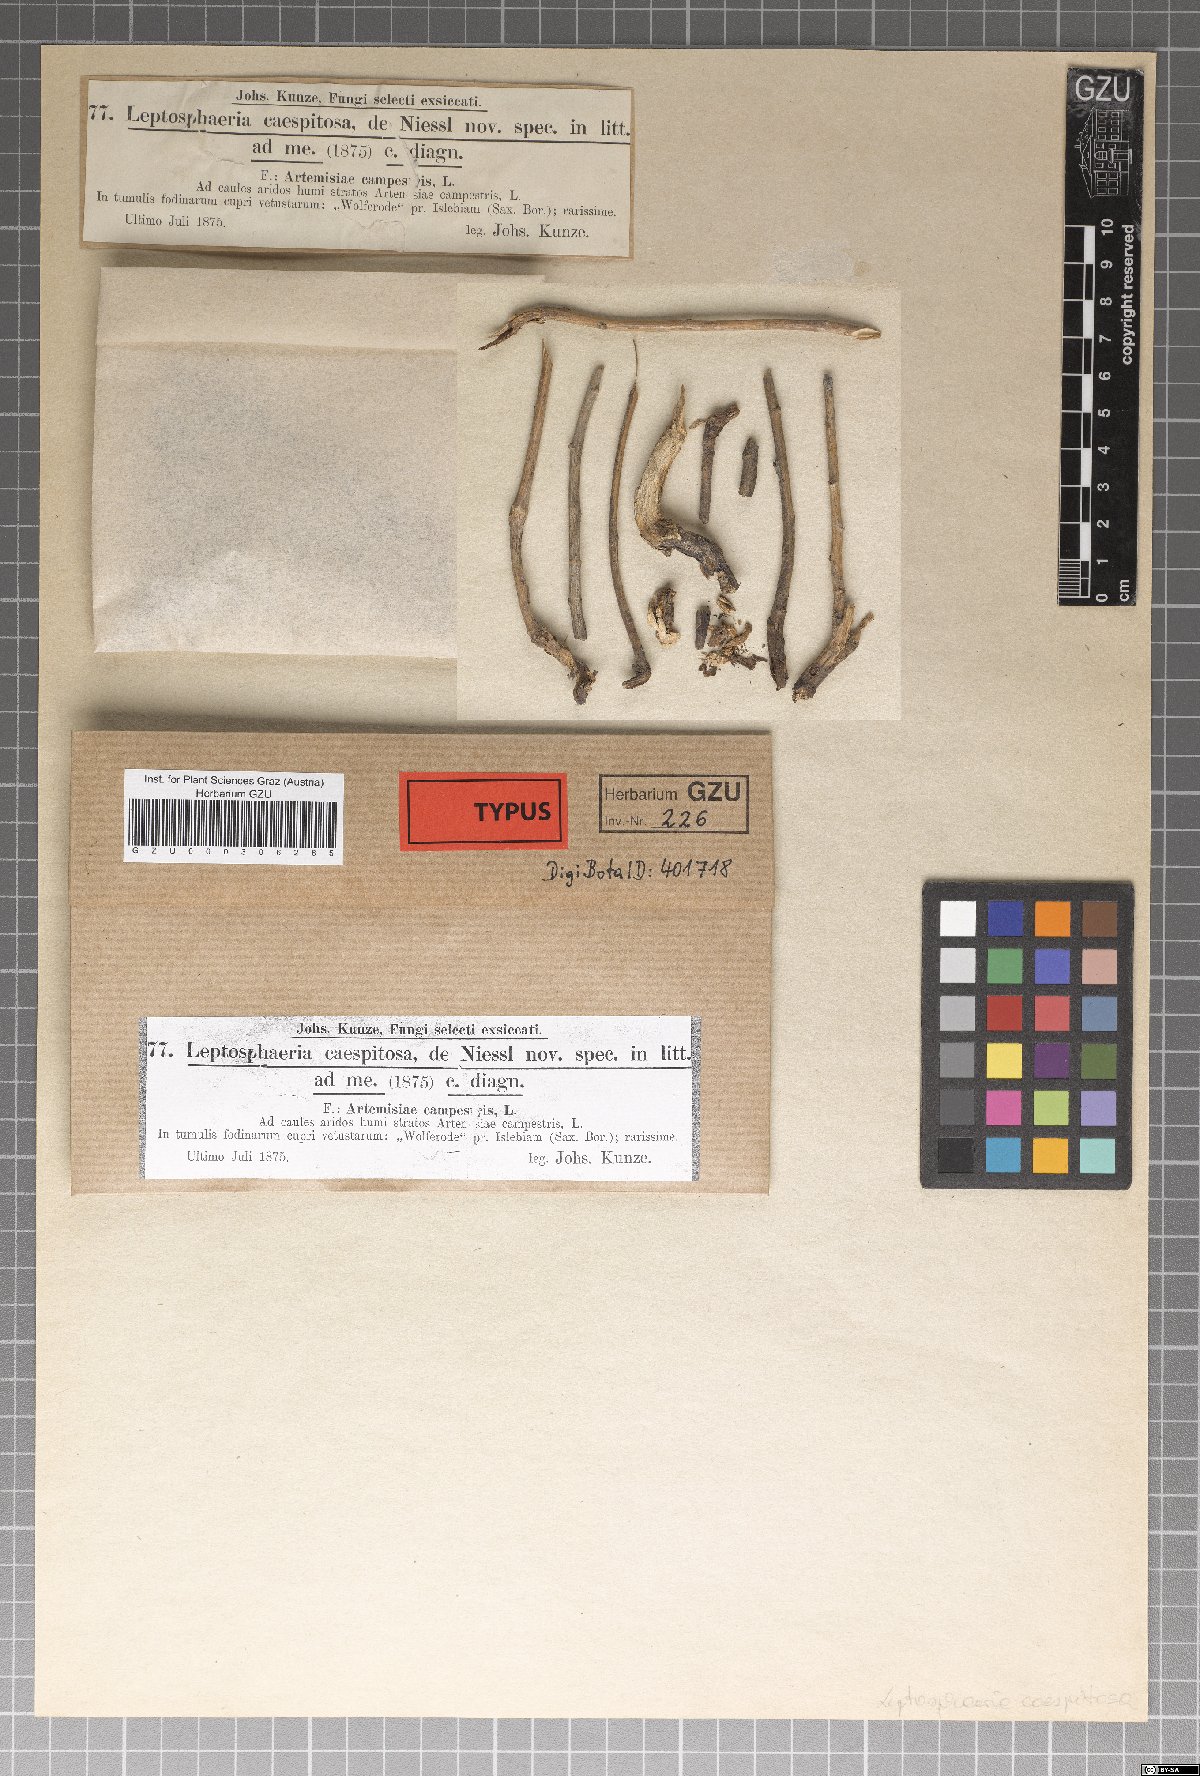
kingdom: Fungi
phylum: Ascomycota
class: Dothideomycetes
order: Pleosporales
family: Leptosphaeriaceae
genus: Leptosphaeria
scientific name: Leptosphaeria caespitosa
